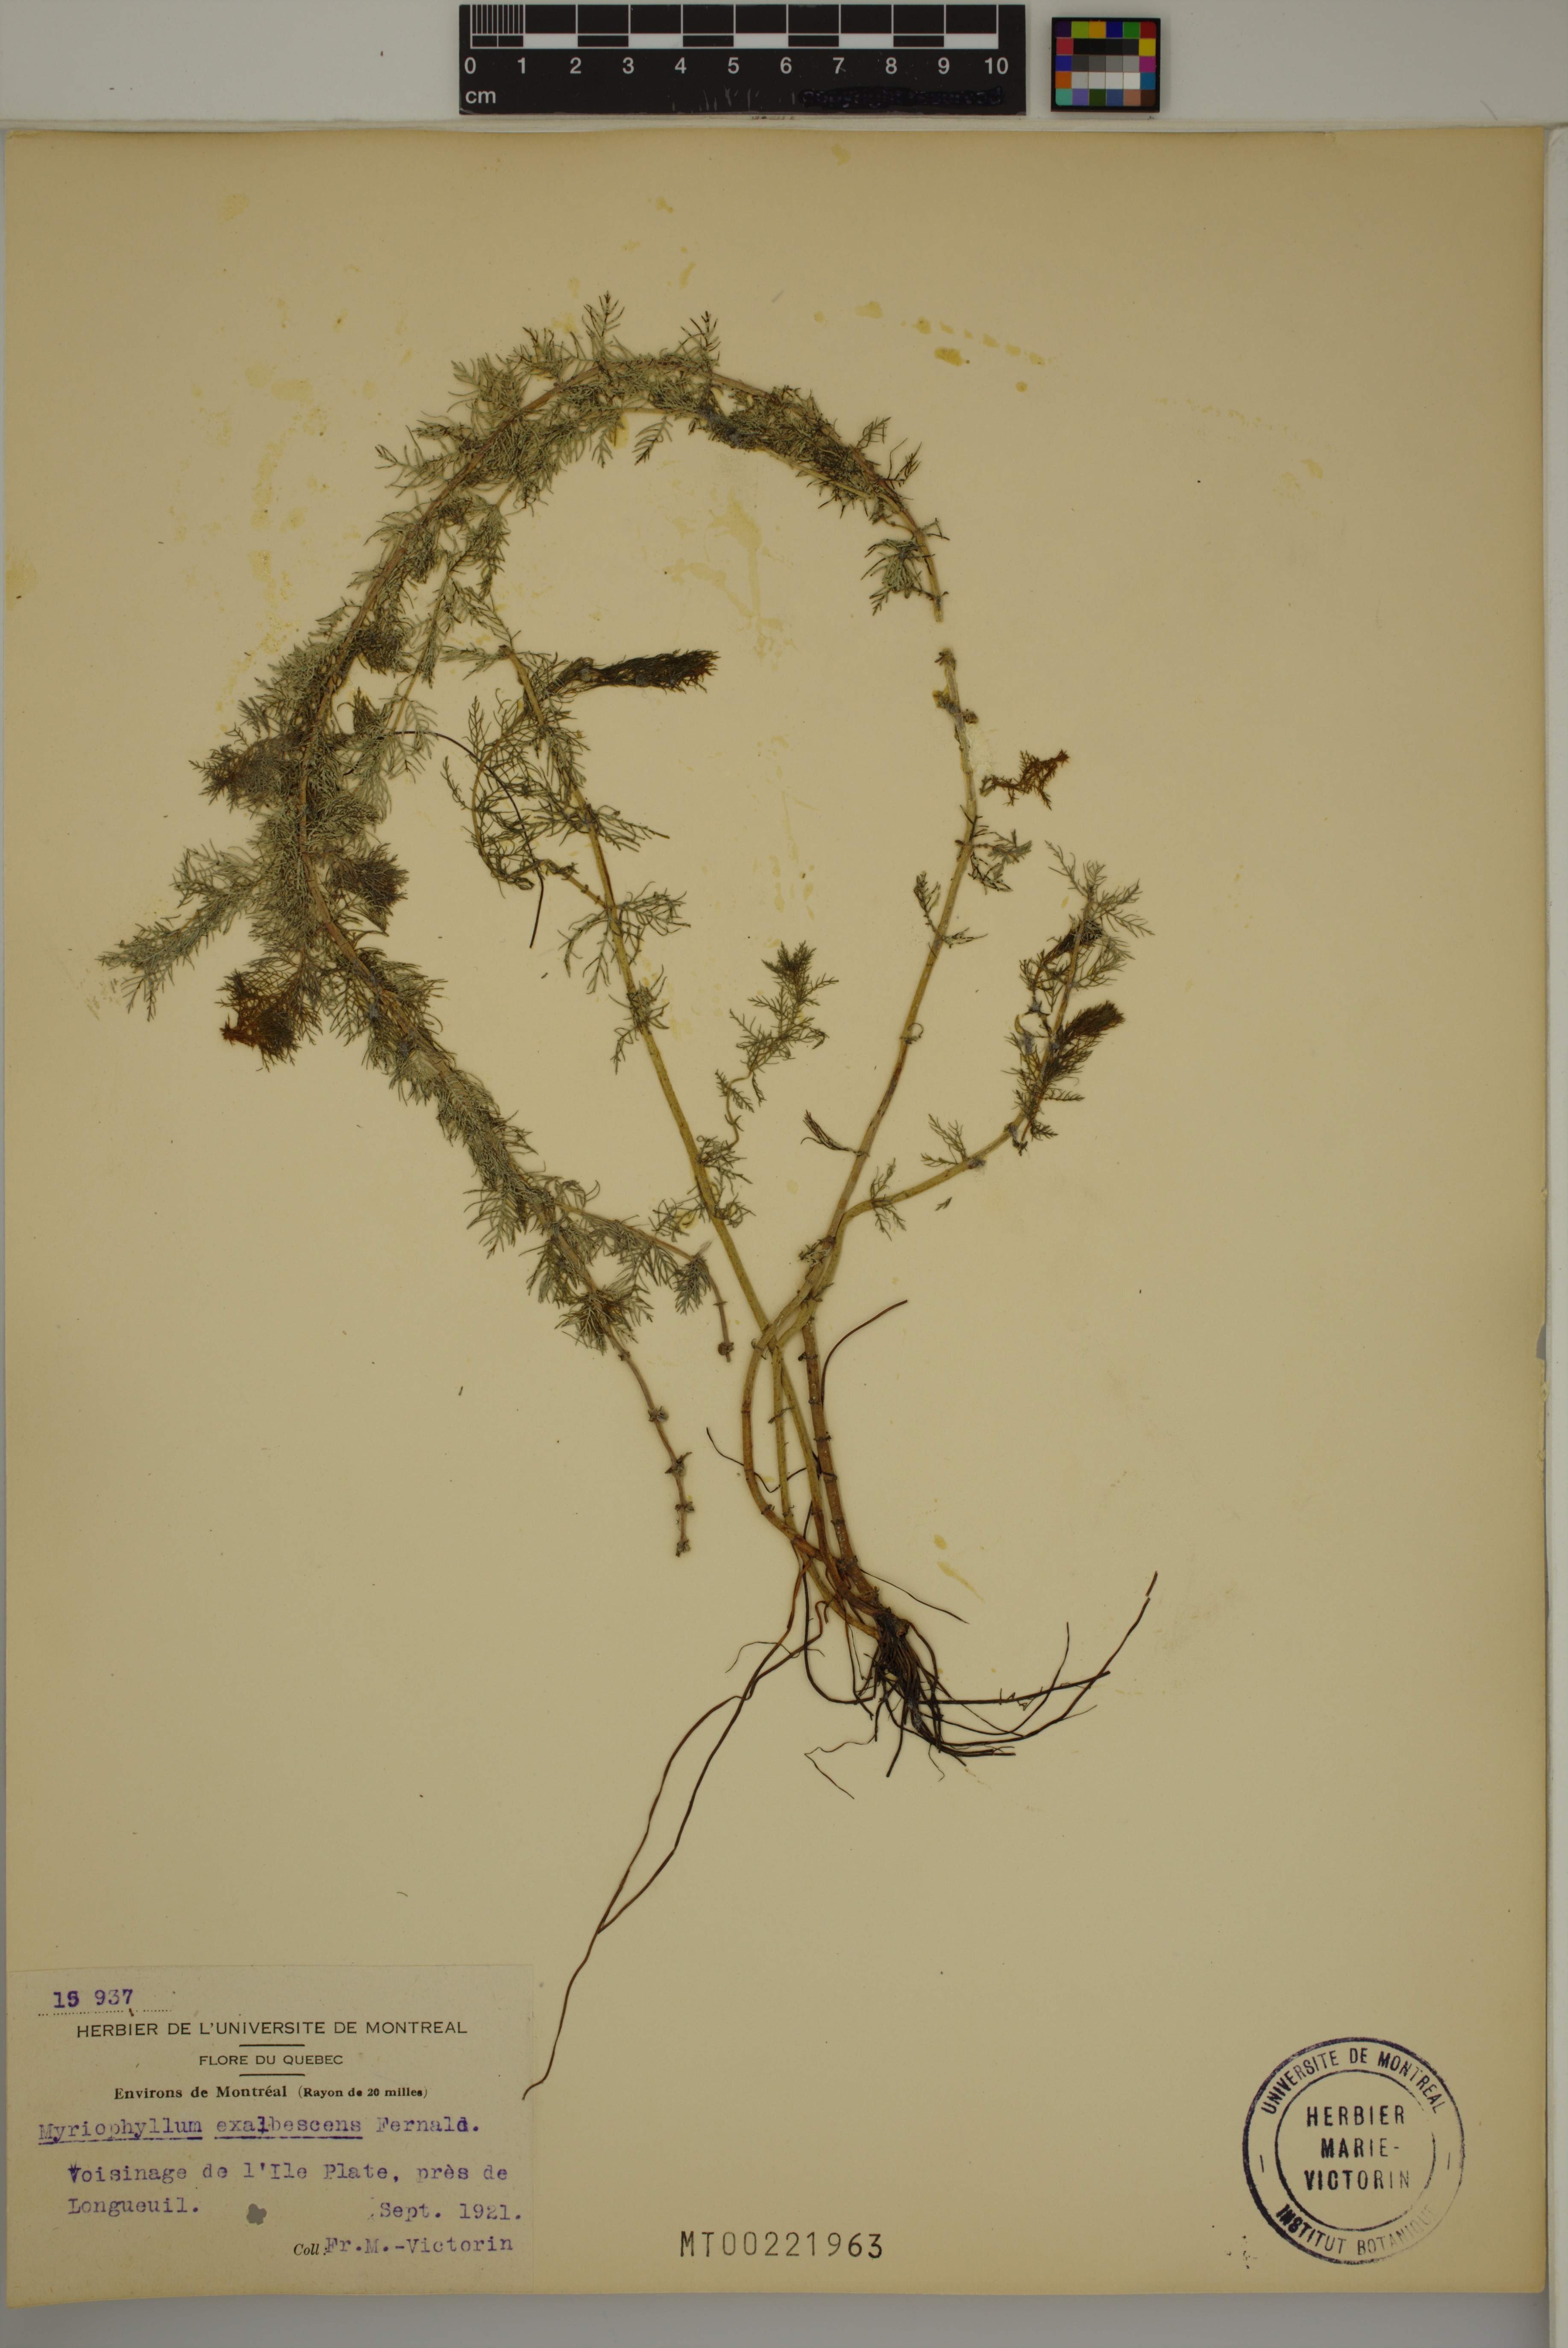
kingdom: Plantae
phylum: Tracheophyta
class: Magnoliopsida
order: Saxifragales
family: Haloragaceae
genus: Myriophyllum
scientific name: Myriophyllum sibiricum
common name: Siberian water-milfoil
